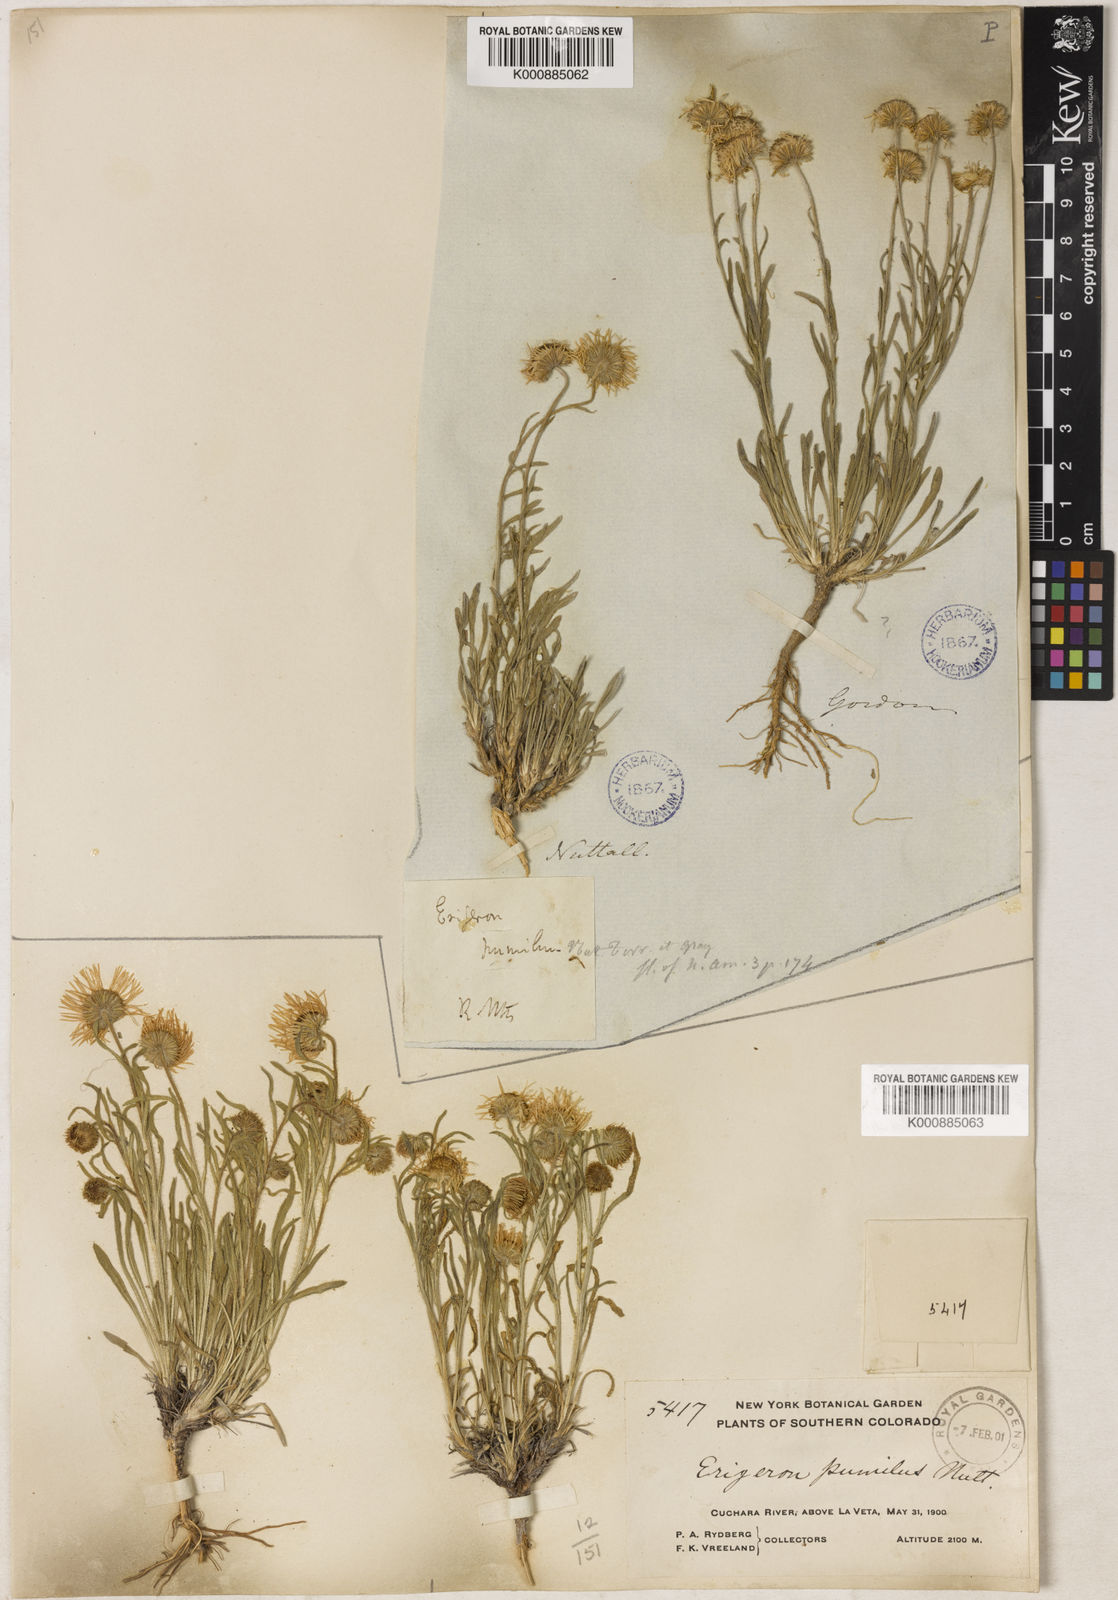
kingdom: Plantae
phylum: Tracheophyta
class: Magnoliopsida
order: Asterales
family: Asteraceae
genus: Erigeron
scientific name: Erigeron pumilus
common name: Shaggy fleabane
